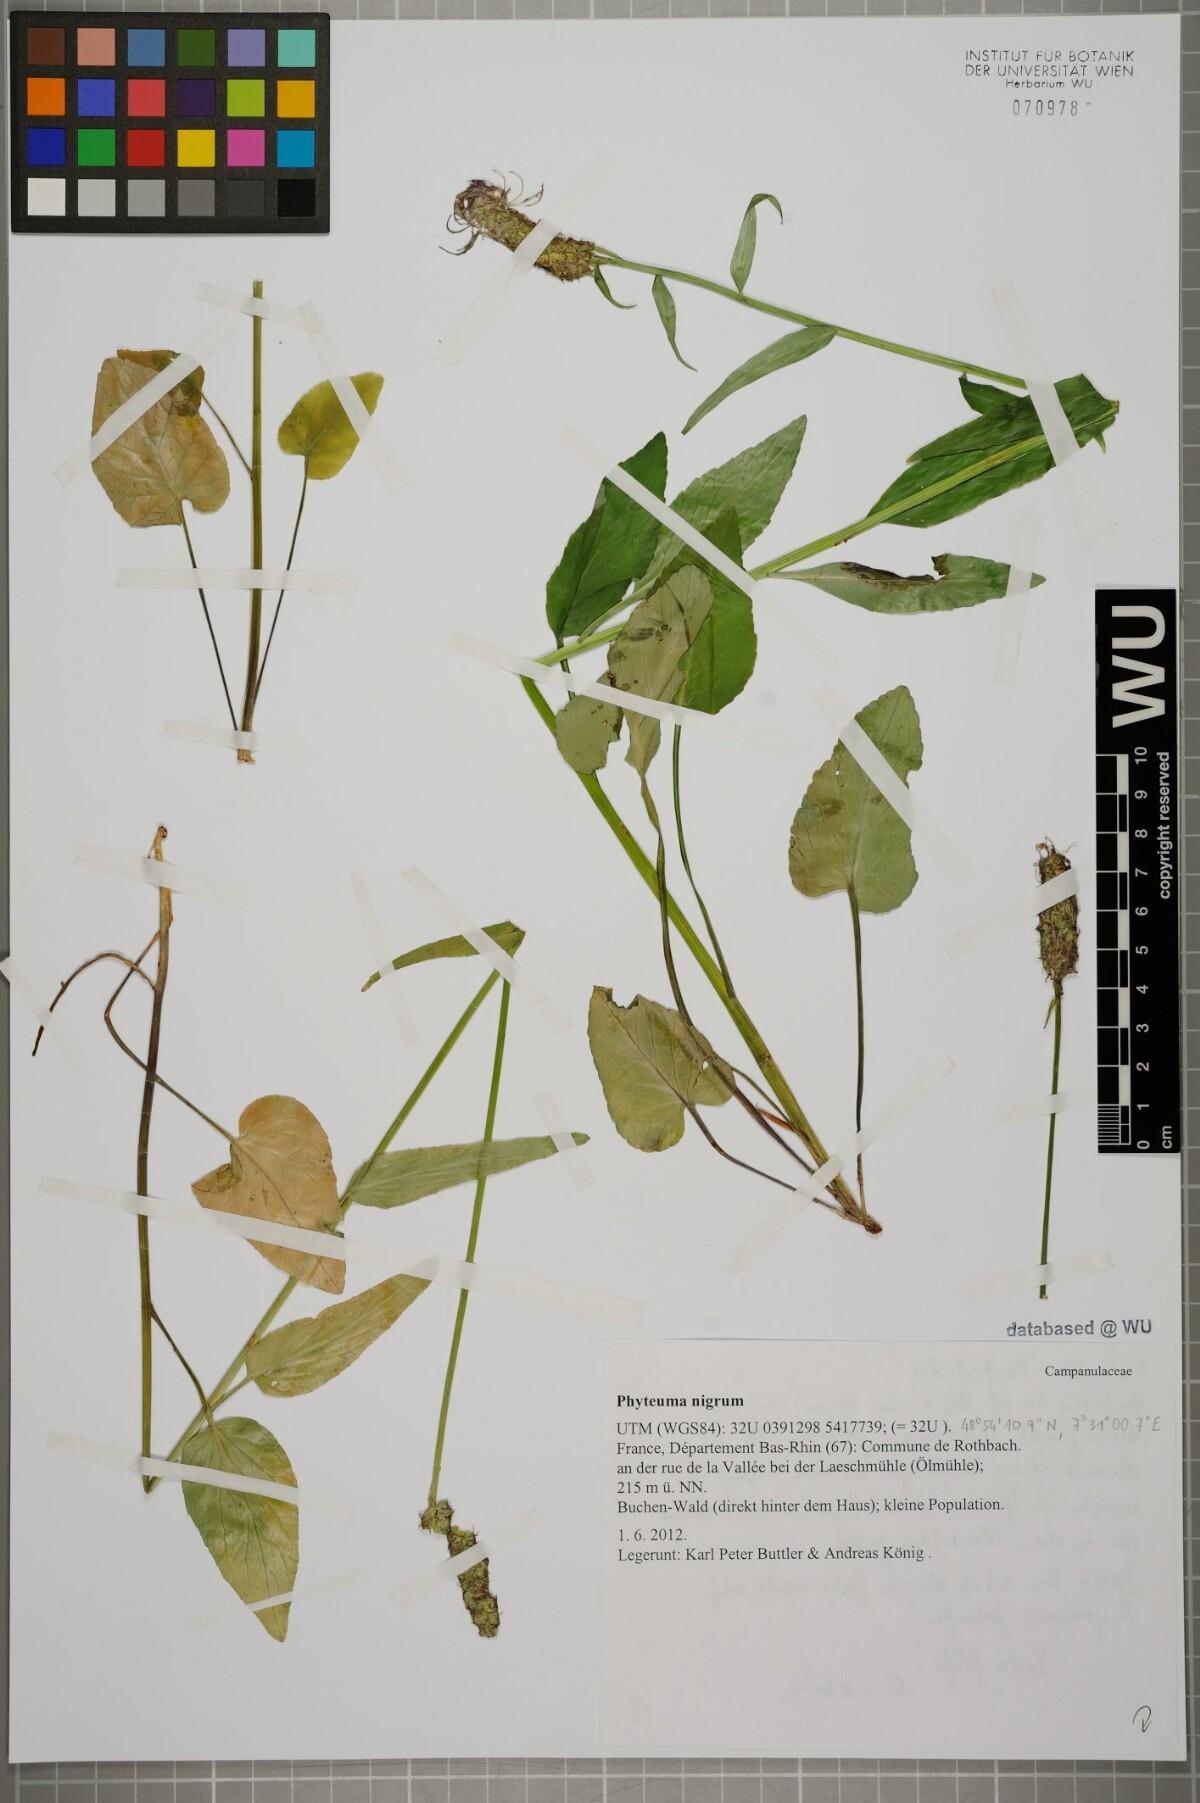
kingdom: Plantae
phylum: Tracheophyta
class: Magnoliopsida
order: Asterales
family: Campanulaceae
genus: Phyteuma
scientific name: Phyteuma nigrum
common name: Black rampion
